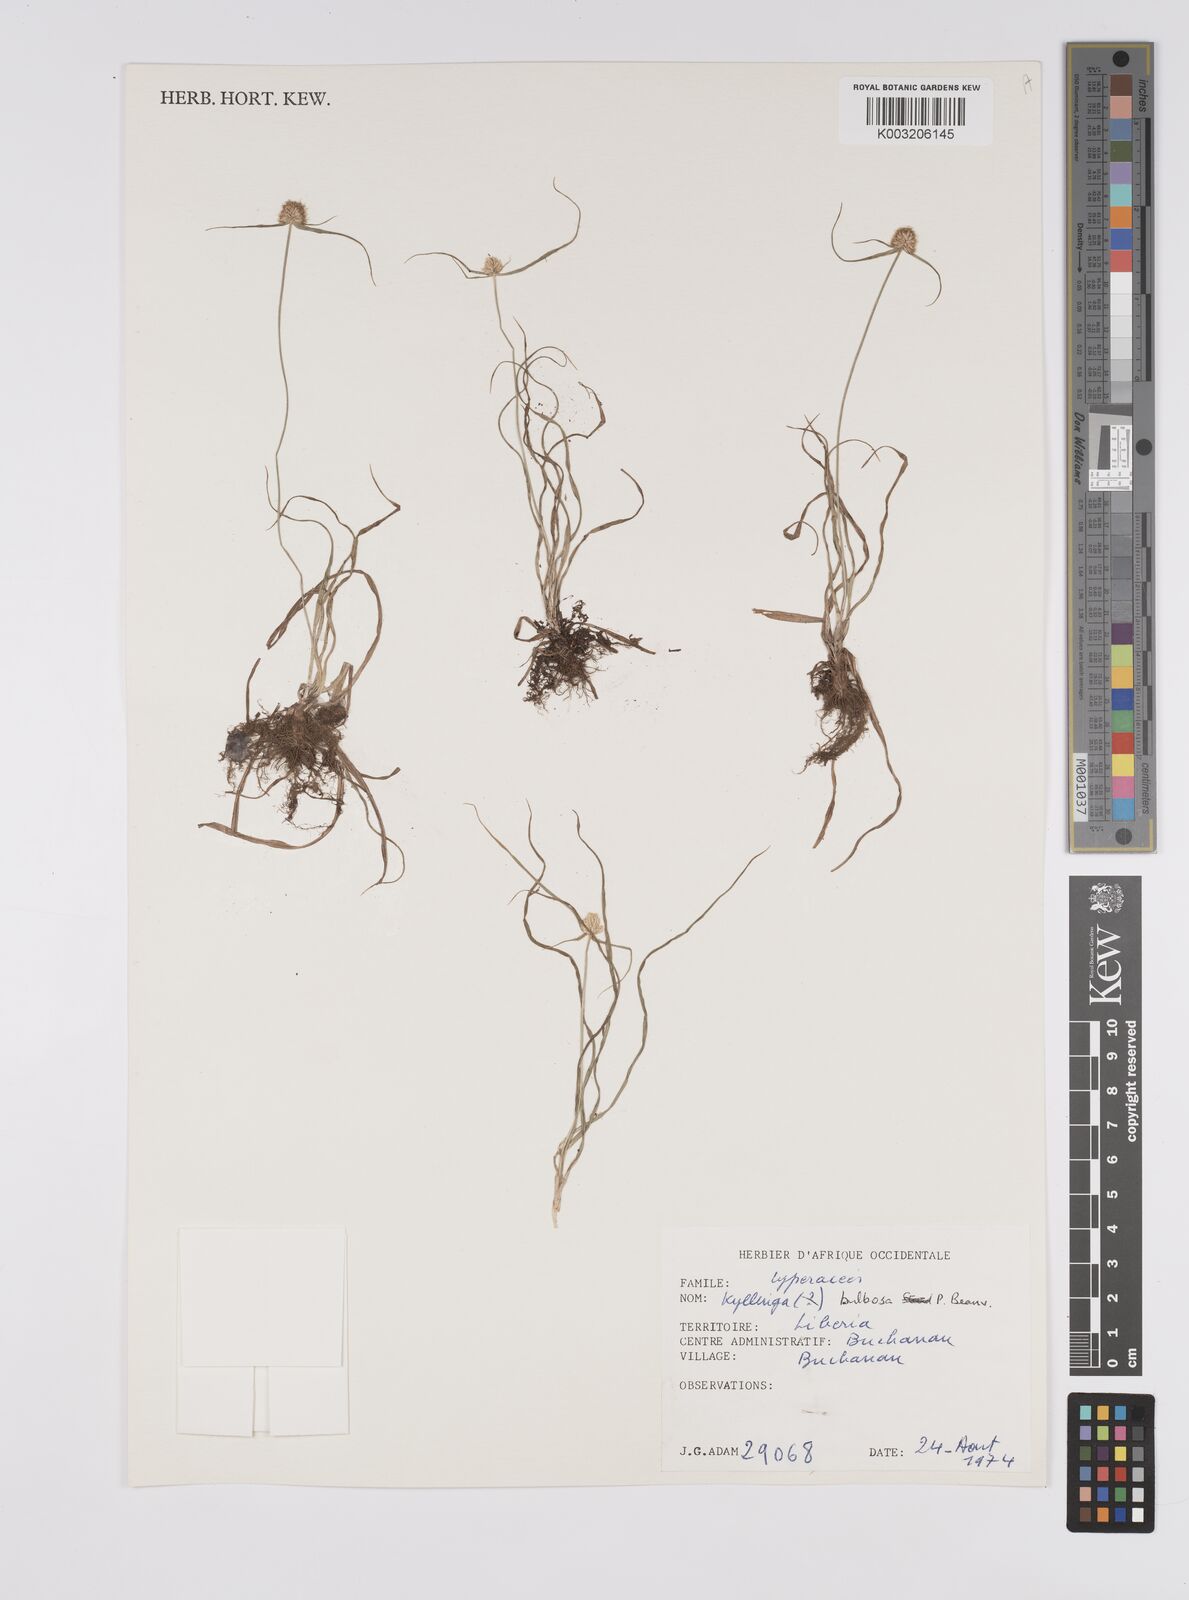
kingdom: Plantae
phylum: Tracheophyta
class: Liliopsida
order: Poales
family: Cyperaceae
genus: Cyperus
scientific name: Cyperus
